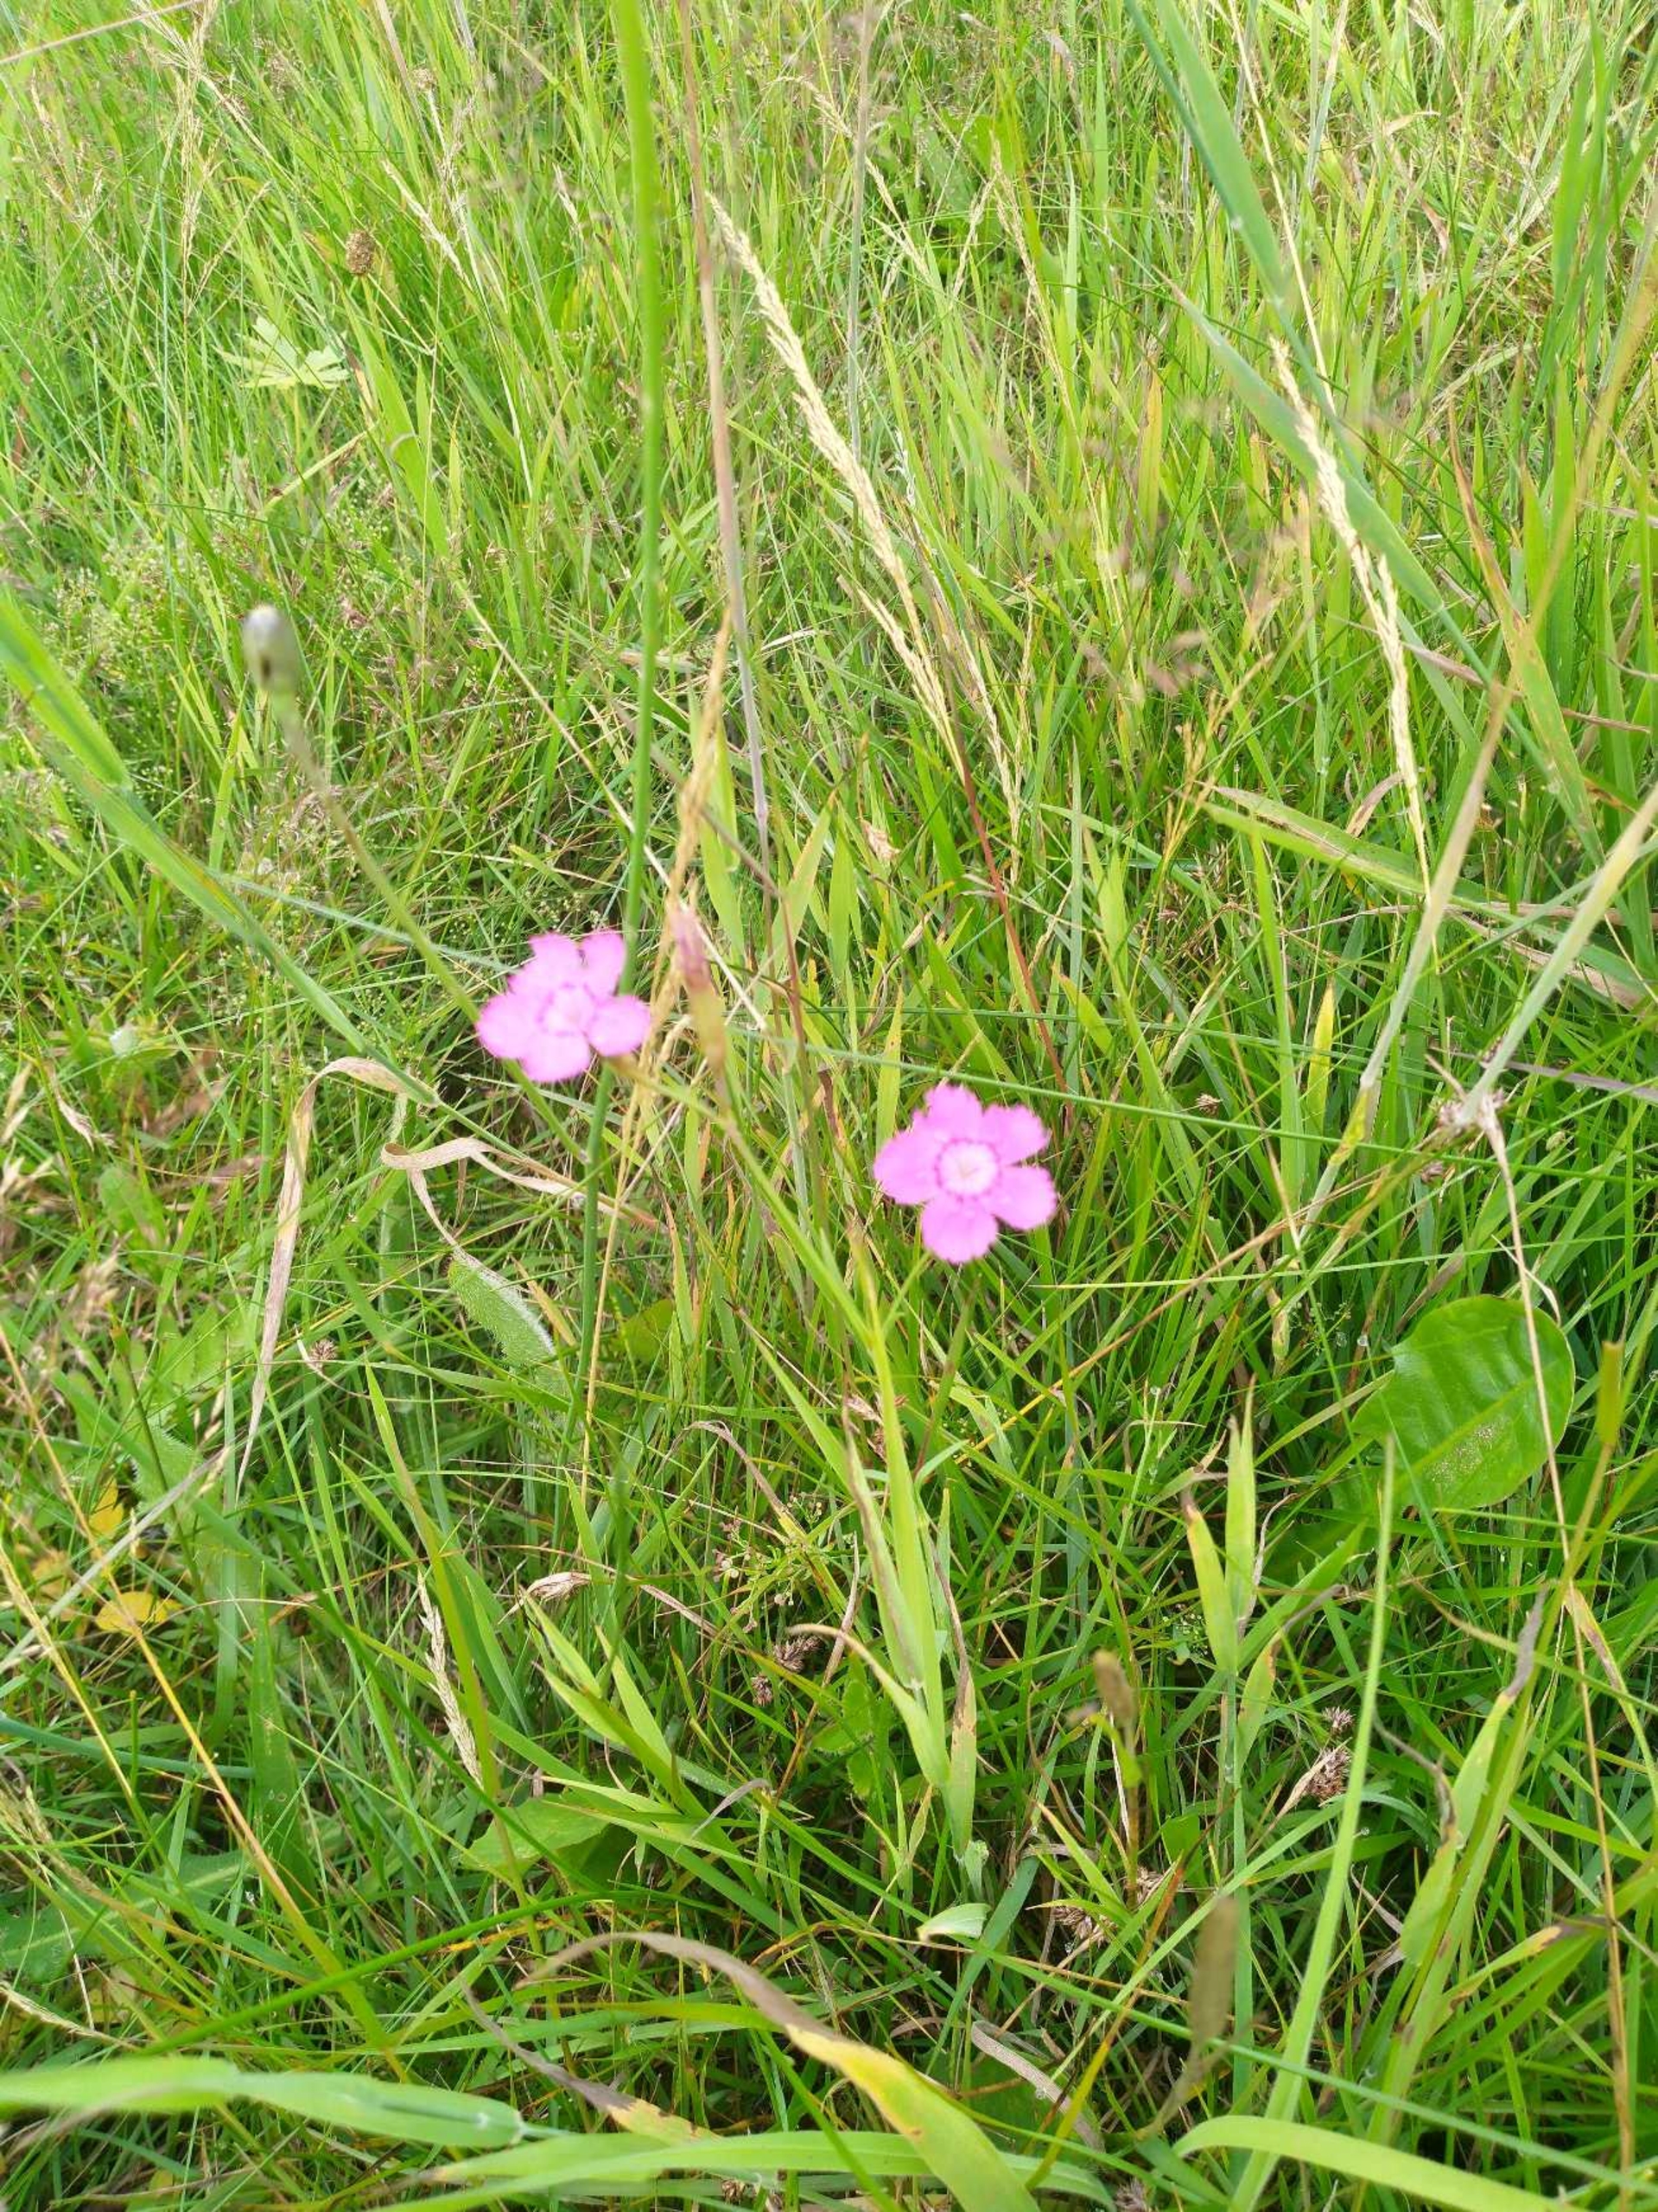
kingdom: Plantae
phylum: Tracheophyta
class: Magnoliopsida
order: Caryophyllales
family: Caryophyllaceae
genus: Dianthus
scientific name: Dianthus deltoides
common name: Bakke-nellike
